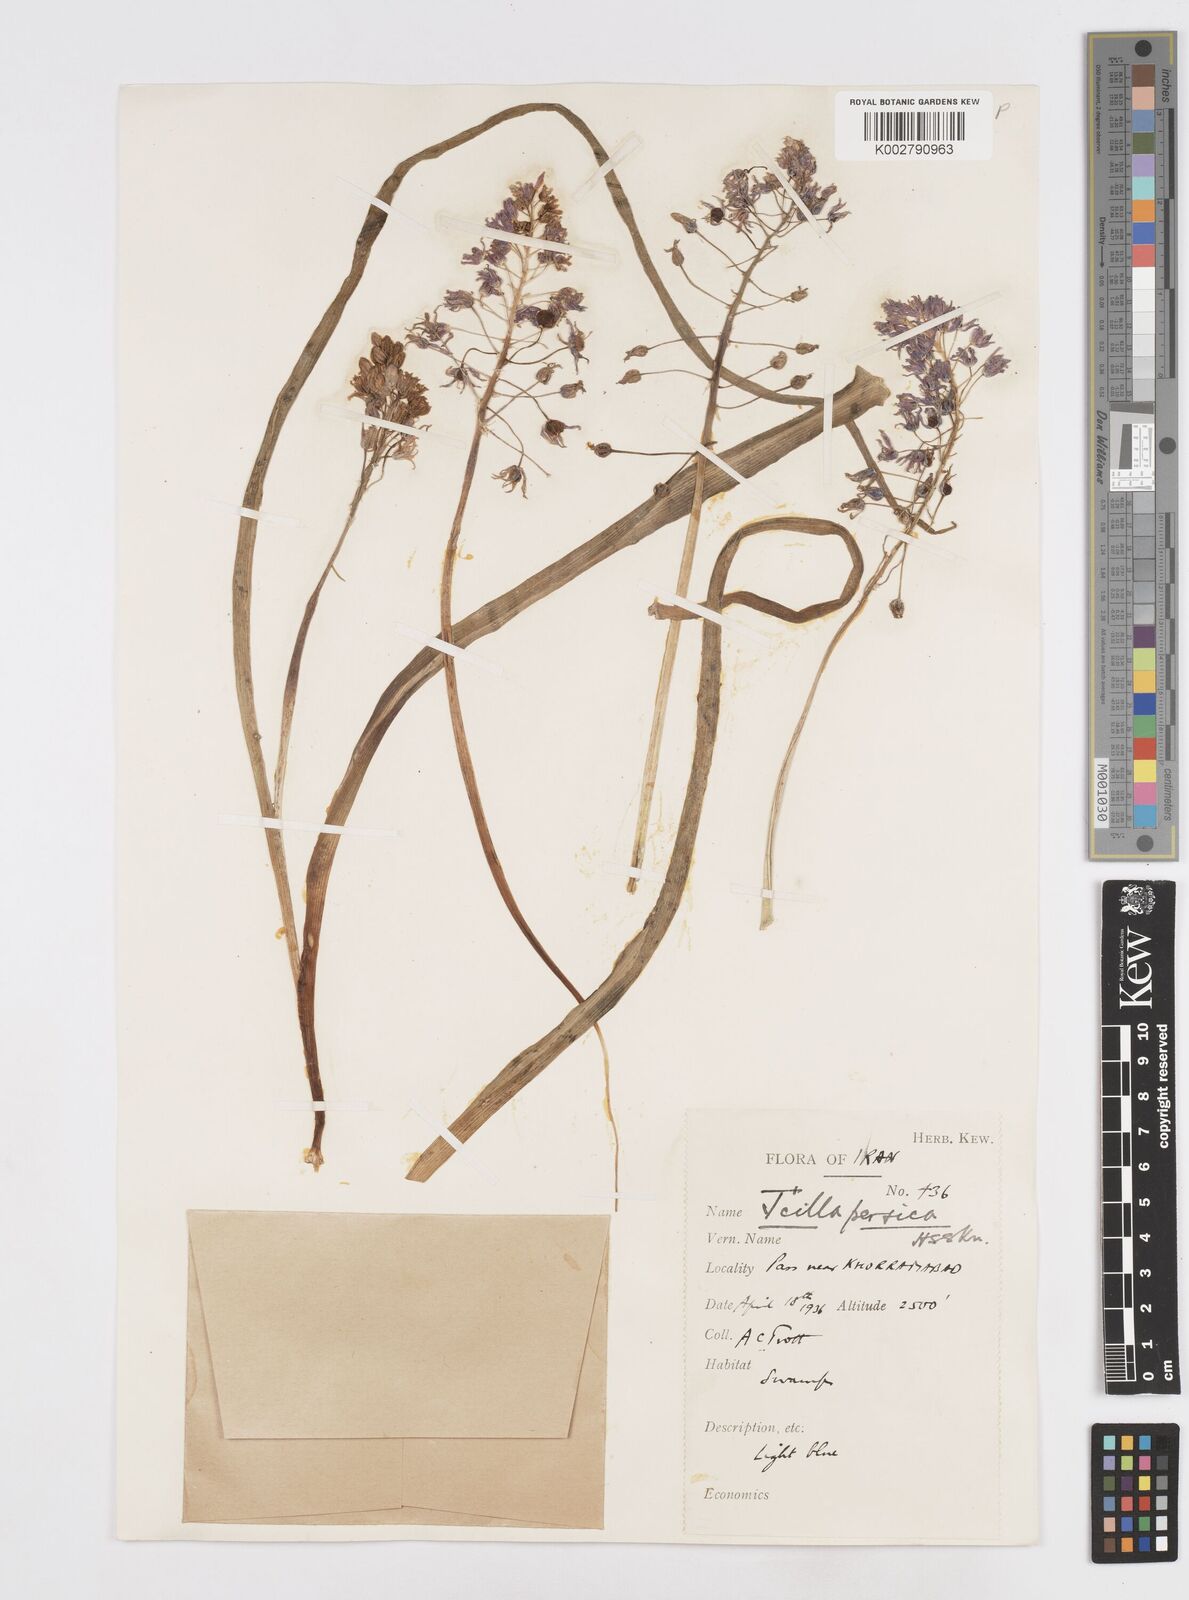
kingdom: Plantae
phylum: Tracheophyta
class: Liliopsida
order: Asparagales
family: Asparagaceae
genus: Zagrosia
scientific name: Zagrosia persica
